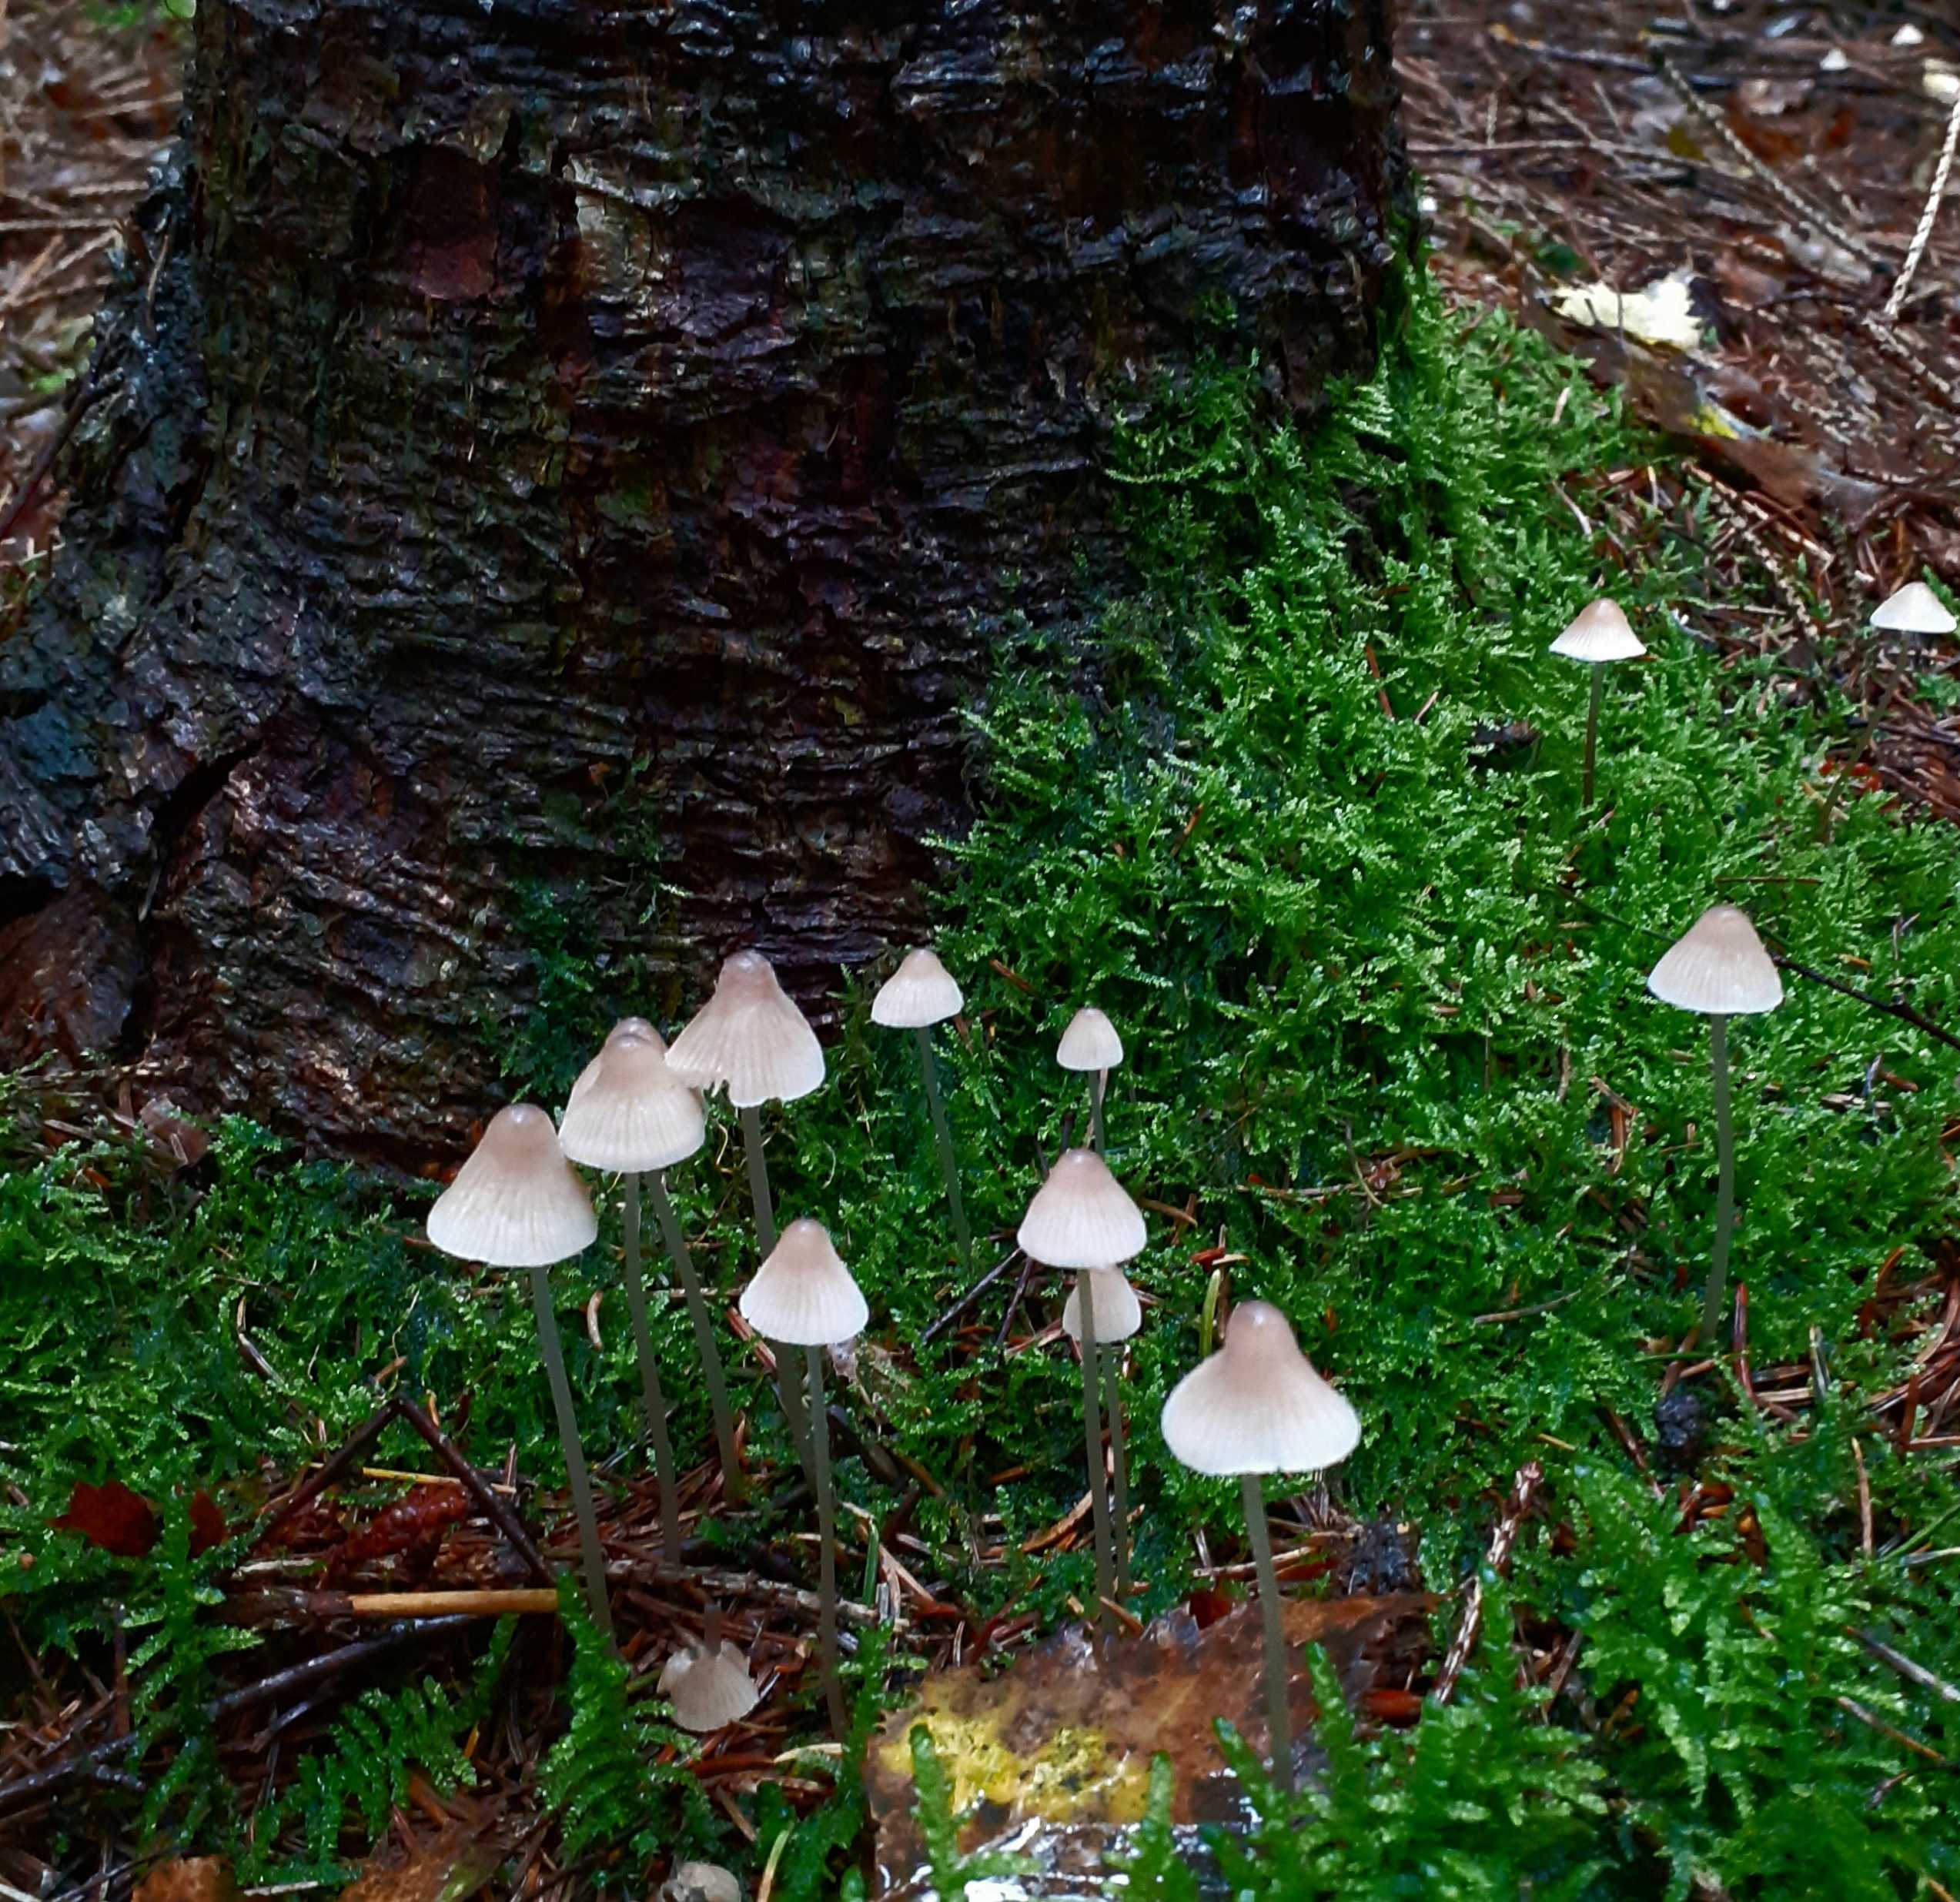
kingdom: Fungi
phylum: Basidiomycota
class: Agaricomycetes
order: Agaricales
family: Mycenaceae
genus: Mycena
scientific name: Mycena metata
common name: rødlig huesvamp
